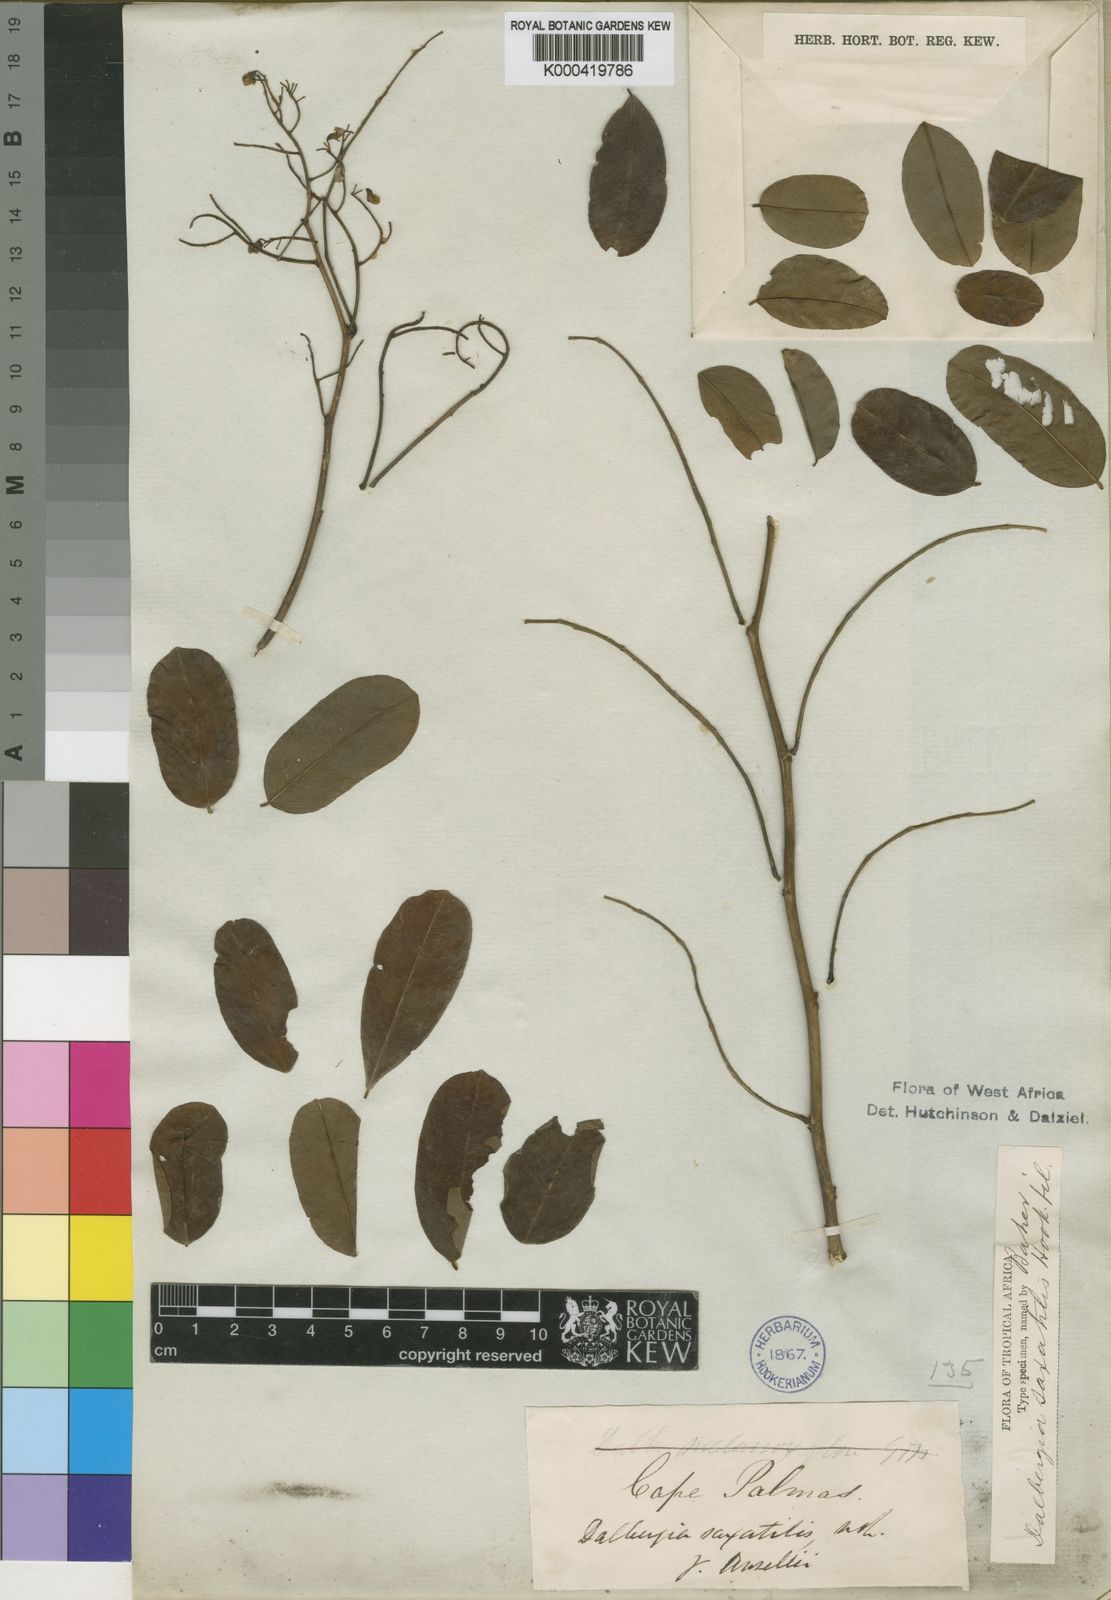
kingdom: Plantae
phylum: Tracheophyta
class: Magnoliopsida
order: Fabales
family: Fabaceae
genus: Dalbergia
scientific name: Dalbergia saxatilis
